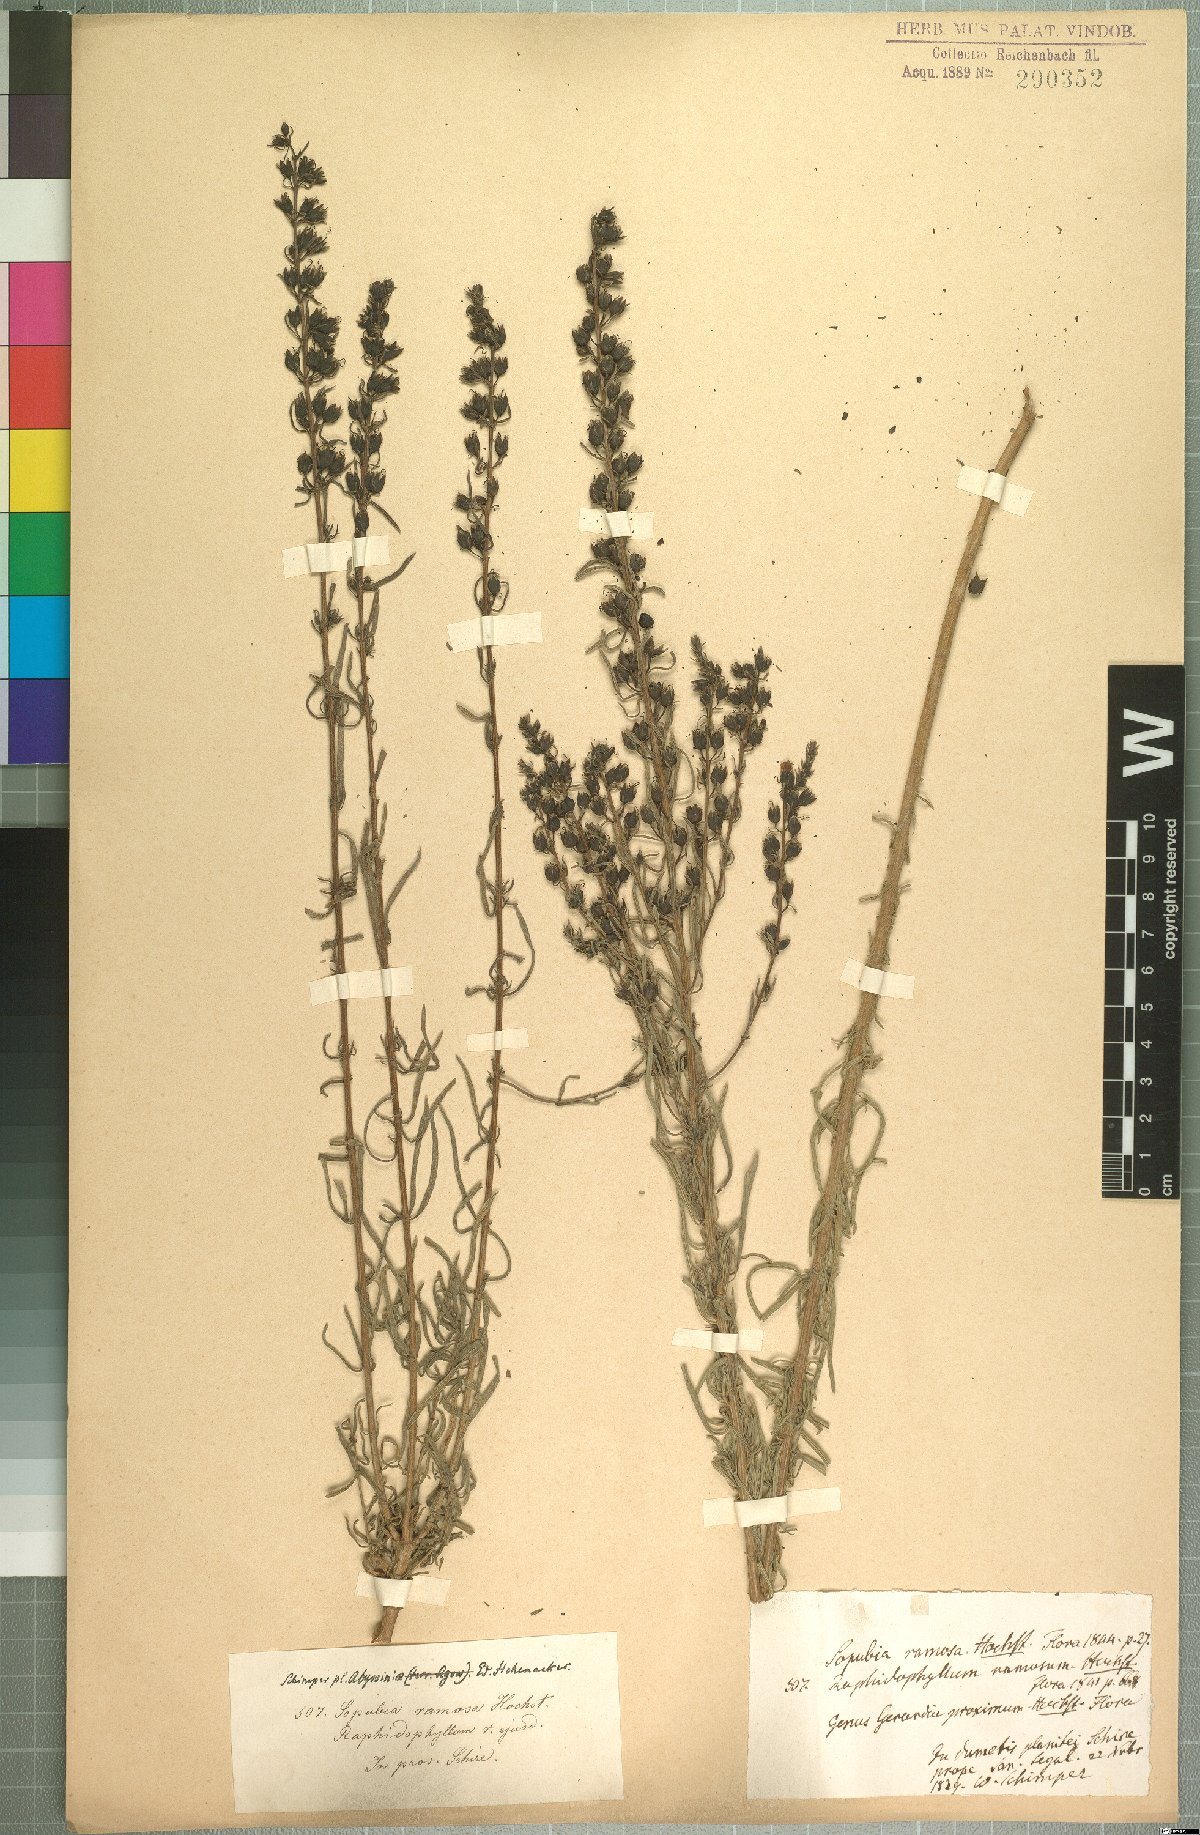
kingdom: Plantae
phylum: Tracheophyta
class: Magnoliopsida
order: Lamiales
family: Orobanchaceae
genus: Sopubia
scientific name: Sopubia ramosa
